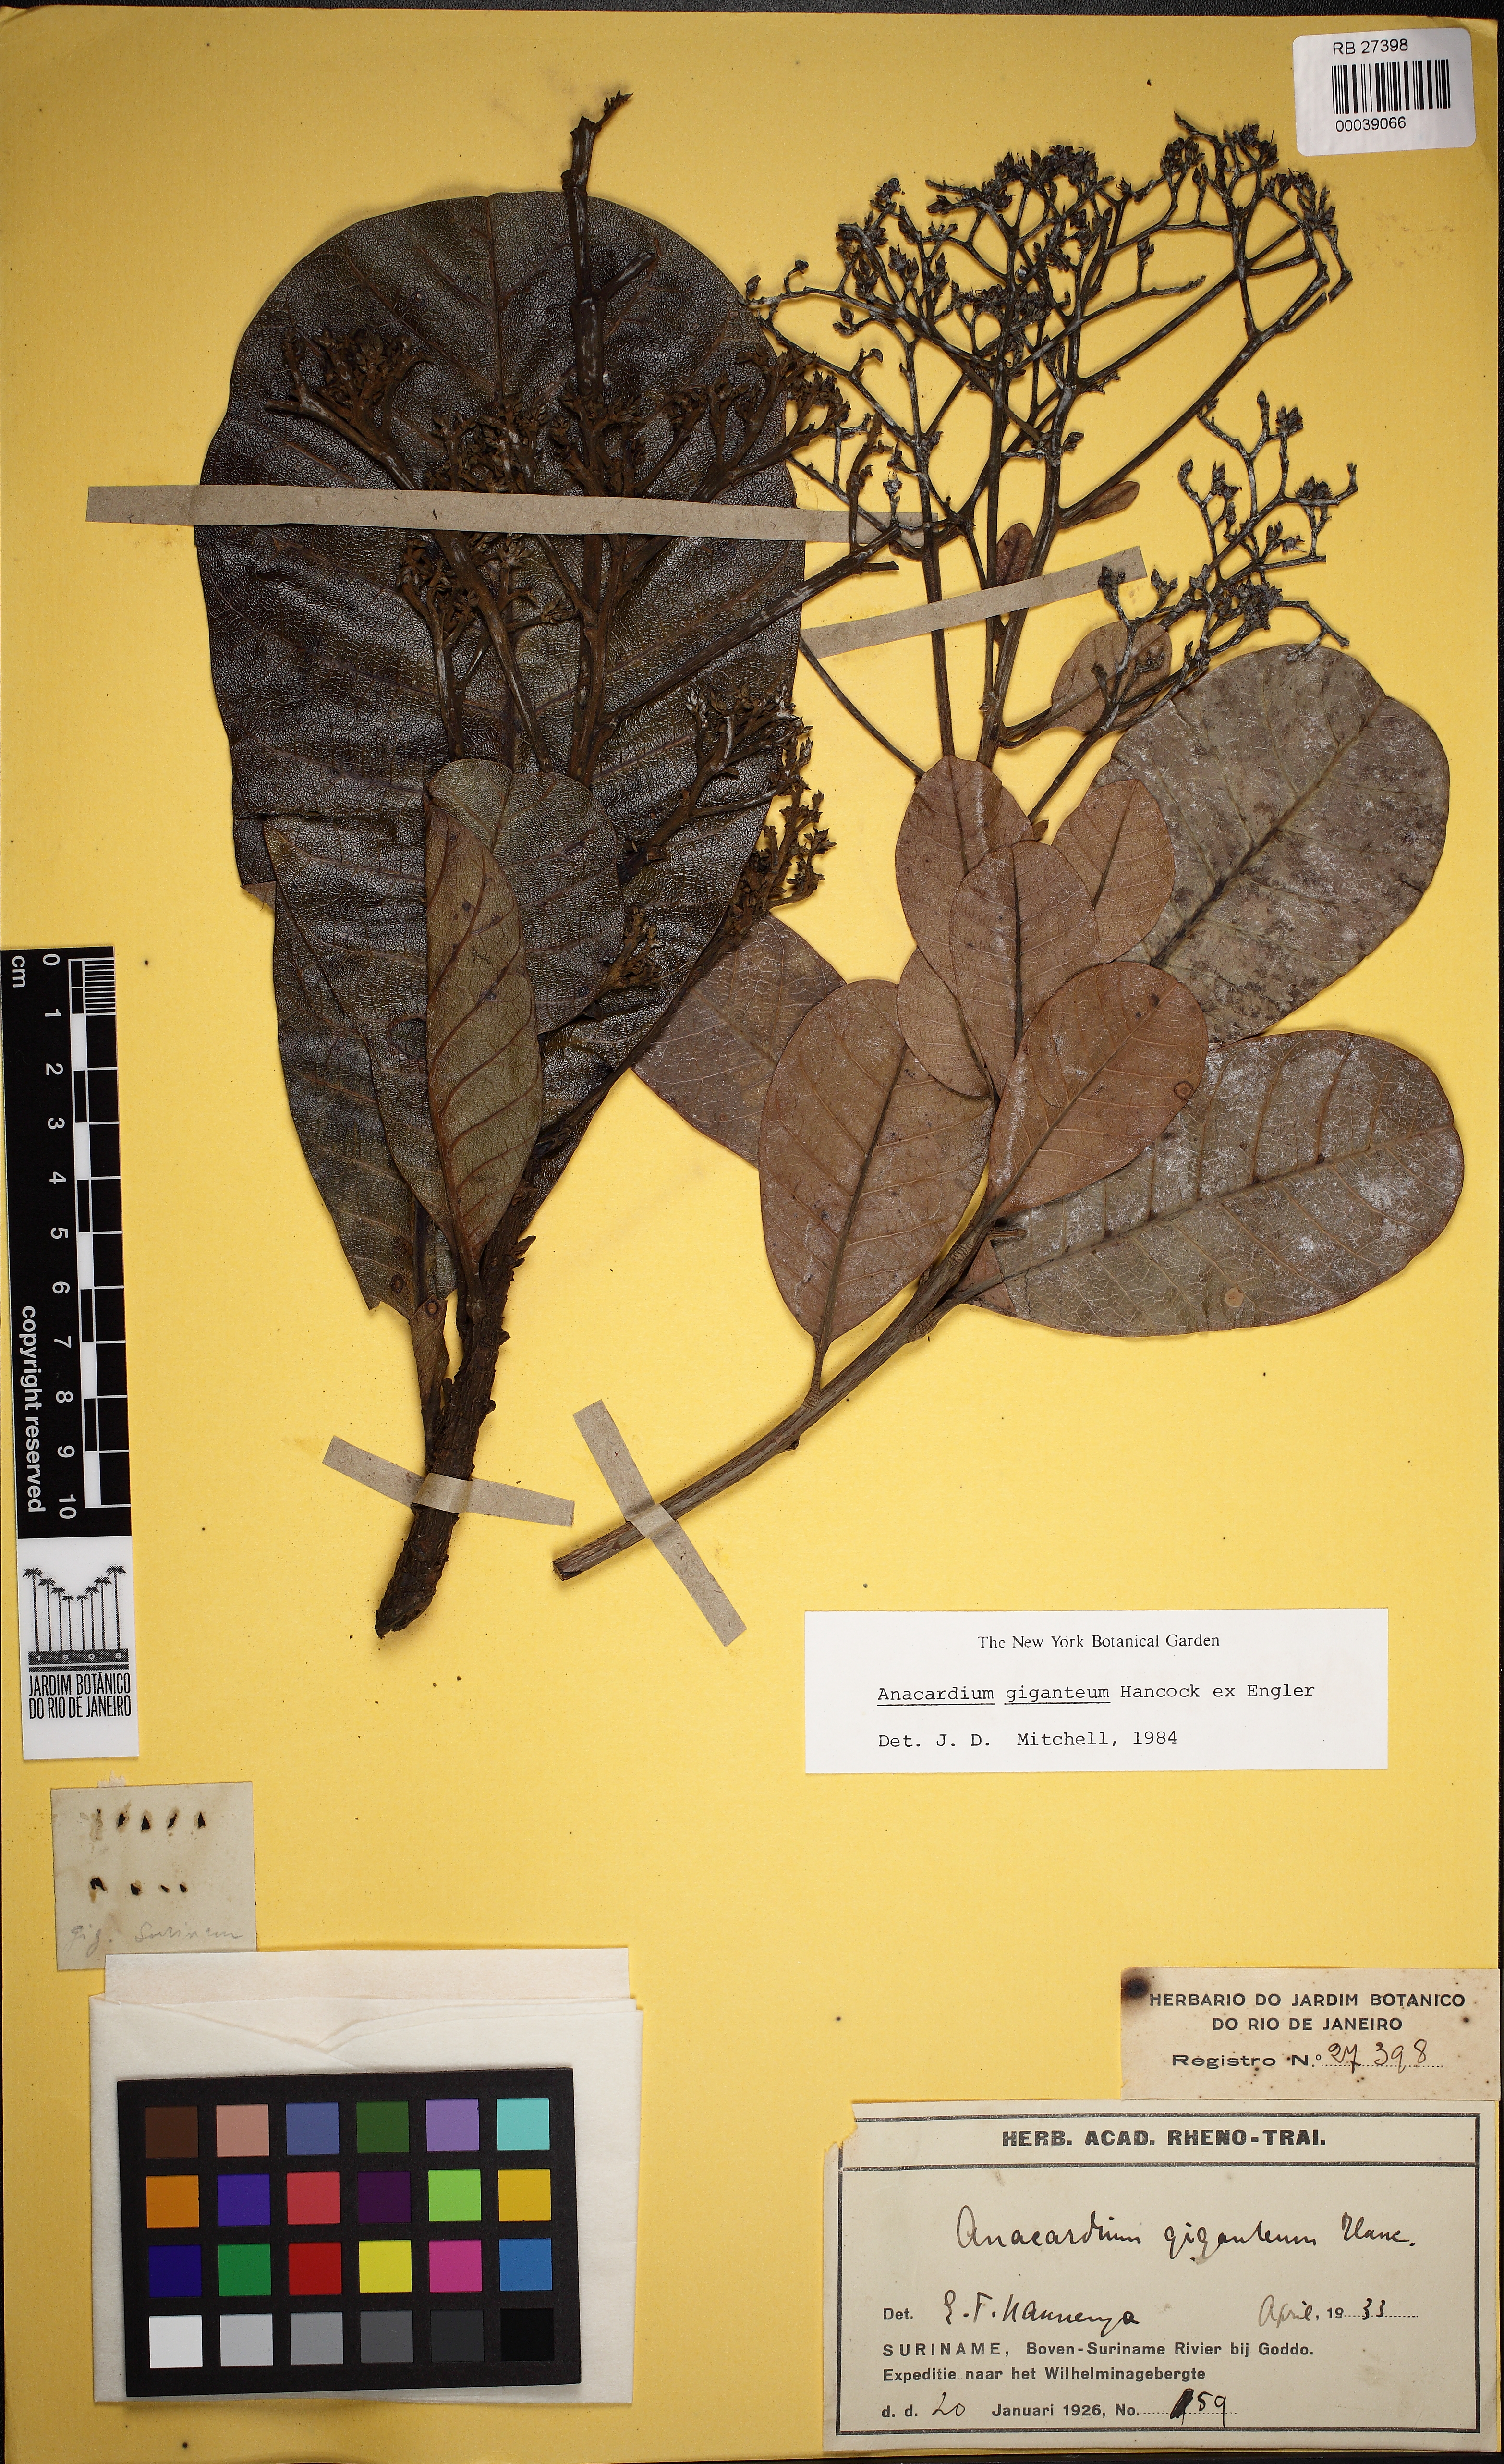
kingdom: Plantae
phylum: Tracheophyta
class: Magnoliopsida
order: Sapindales
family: Anacardiaceae
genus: Anacardium
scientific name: Anacardium giganteum
